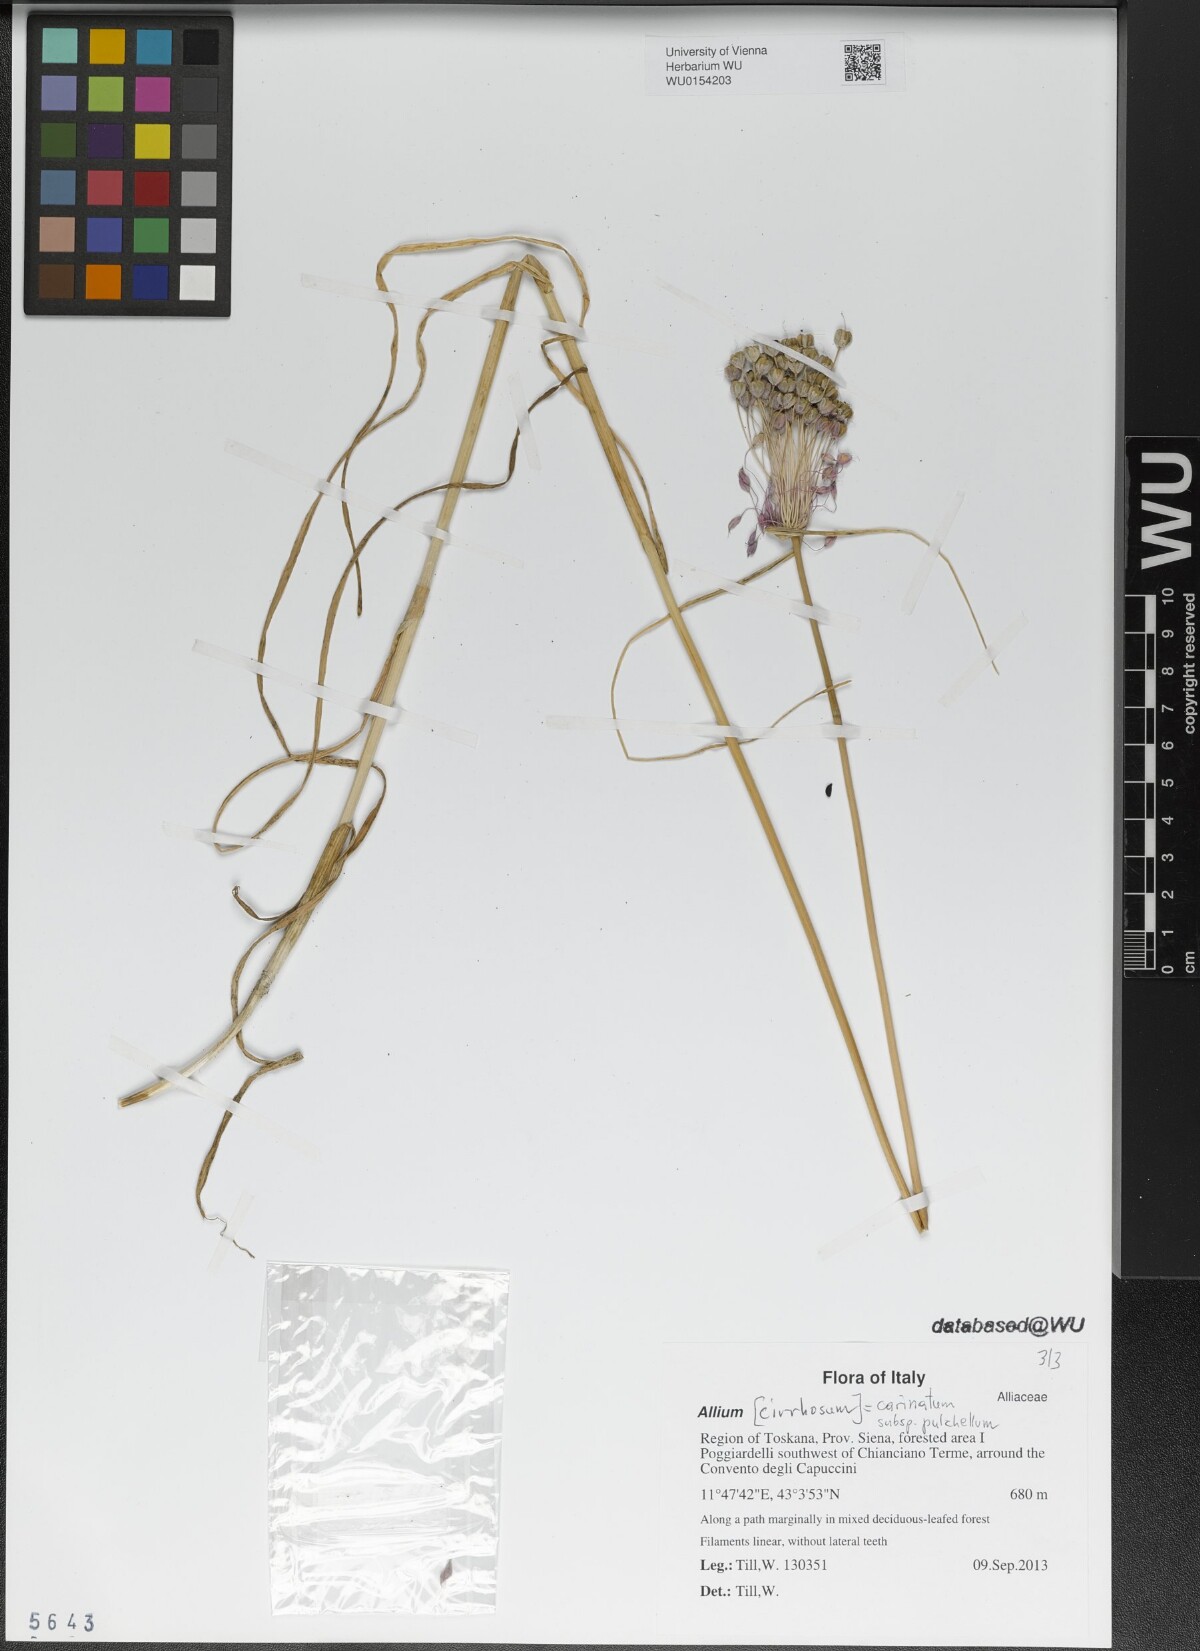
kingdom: Plantae
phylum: Tracheophyta
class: Liliopsida
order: Asparagales
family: Amaryllidaceae
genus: Allium
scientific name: Allium coloratum
